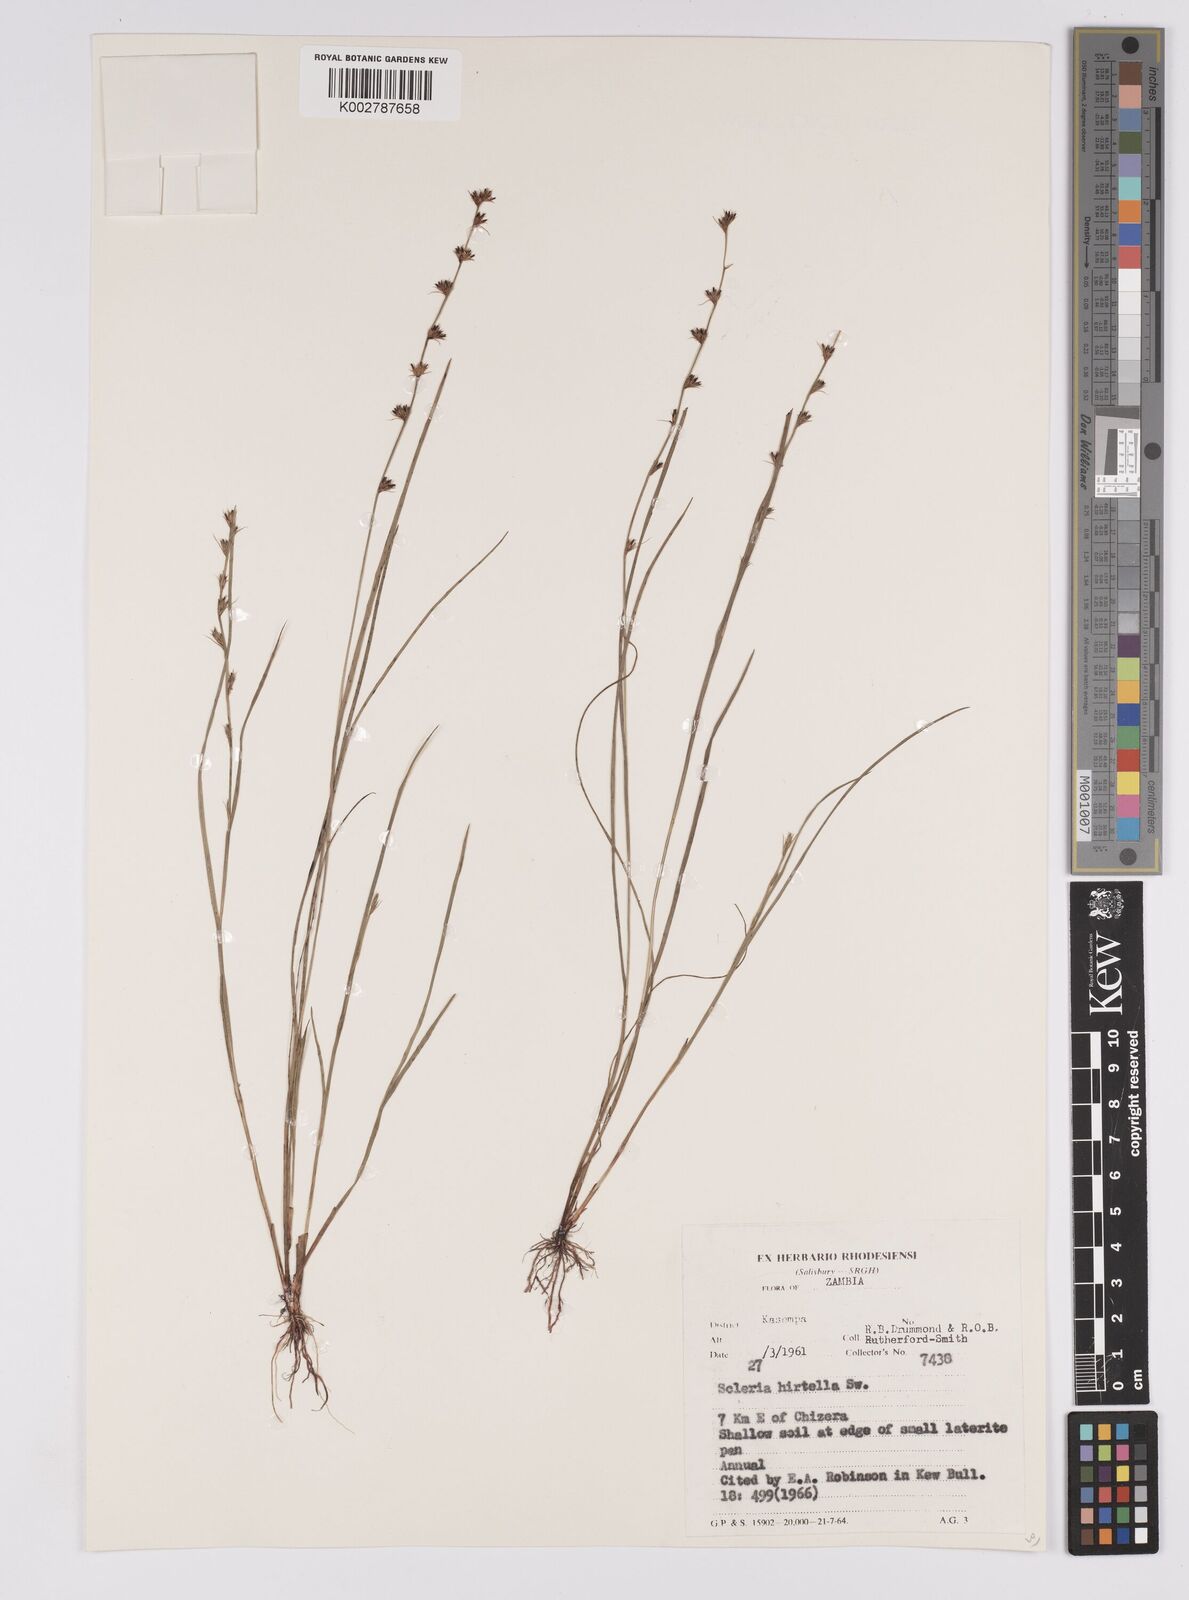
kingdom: Plantae
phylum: Tracheophyta
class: Liliopsida
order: Poales
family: Cyperaceae
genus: Scleria
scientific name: Scleria melanotricha
